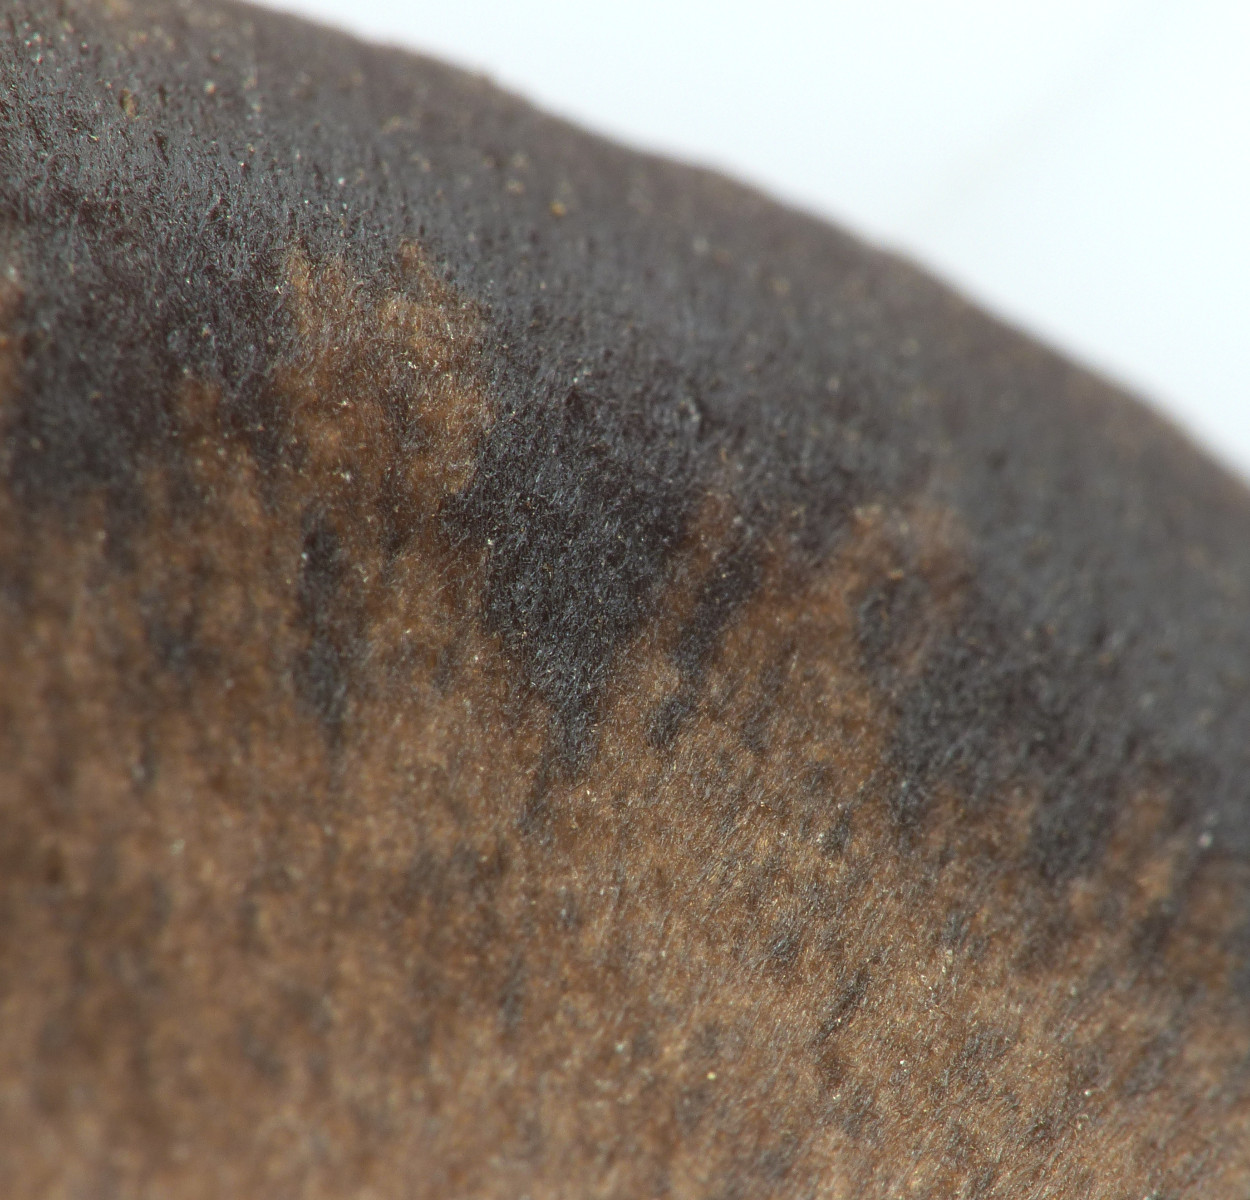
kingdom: Fungi
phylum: Basidiomycota
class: Agaricomycetes
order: Agaricales
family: Entolomataceae
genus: Entoloma
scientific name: Entoloma vindobonense
